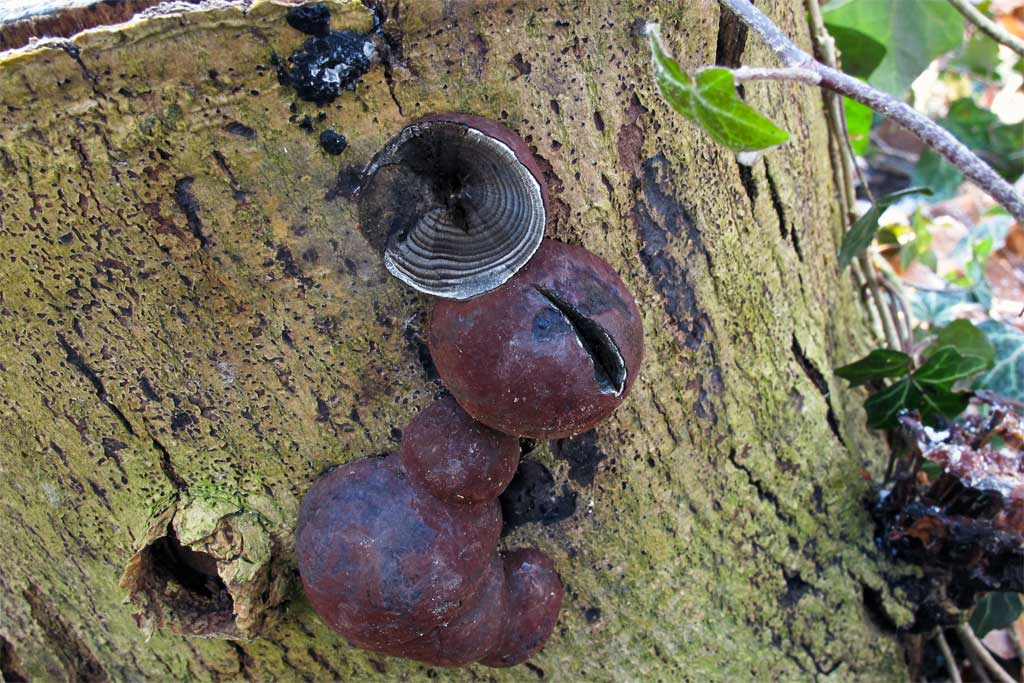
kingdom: Fungi
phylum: Ascomycota
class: Sordariomycetes
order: Xylariales
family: Hypoxylaceae
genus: Daldinia
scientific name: Daldinia concentrica
